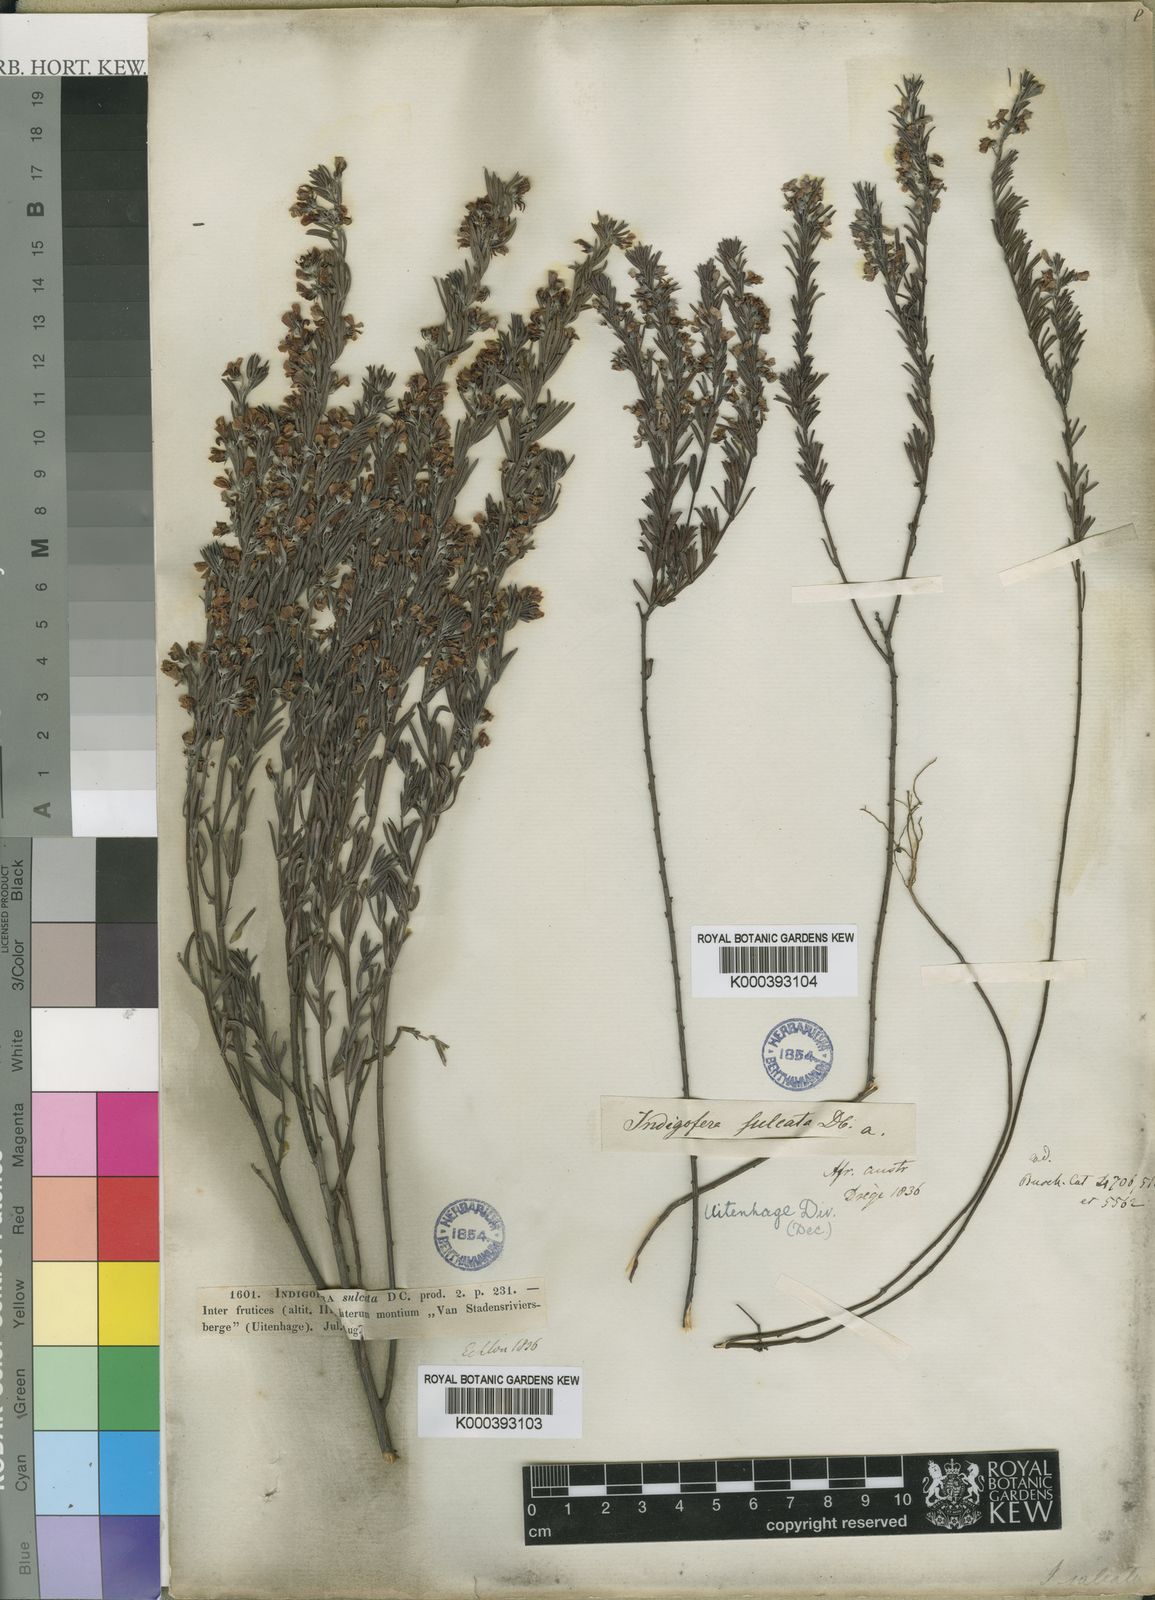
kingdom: Plantae
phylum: Tracheophyta
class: Magnoliopsida
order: Fabales
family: Fabaceae
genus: Indigofera
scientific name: Indigofera sulcata
